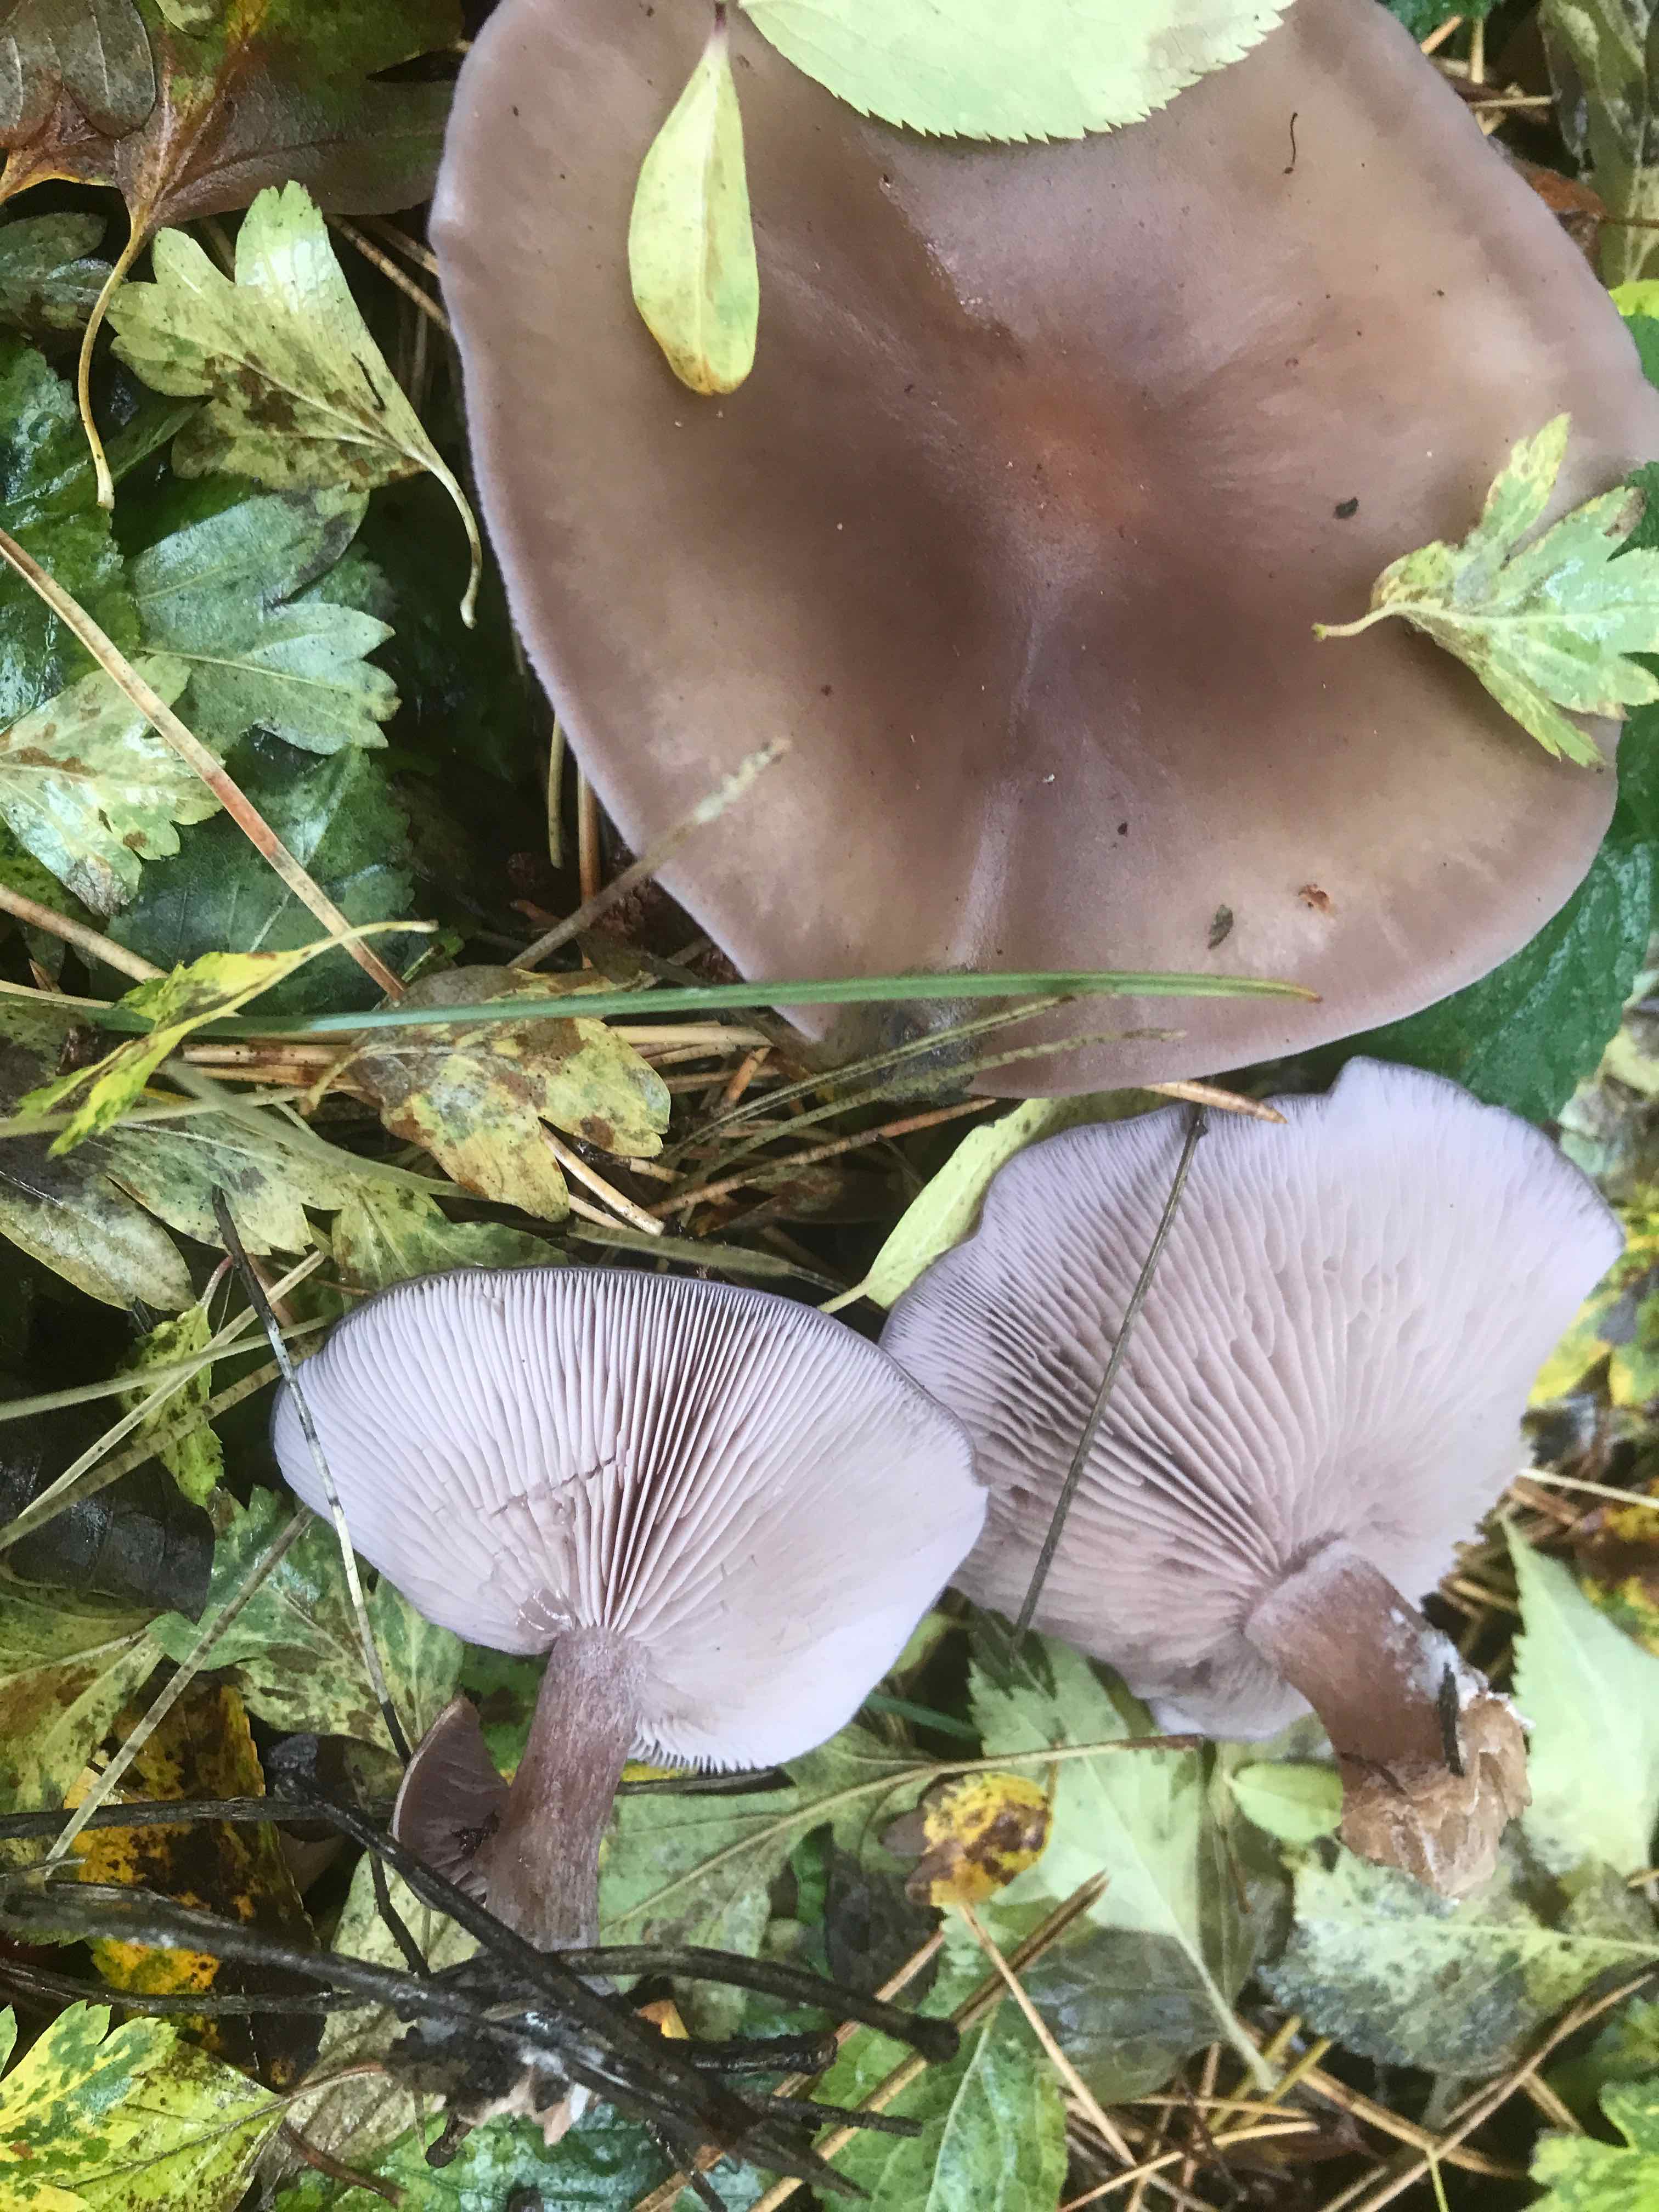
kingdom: Fungi
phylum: Basidiomycota
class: Agaricomycetes
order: Agaricales
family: Tricholomataceae
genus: Lepista
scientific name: Lepista nuda
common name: violet hekseringshat
